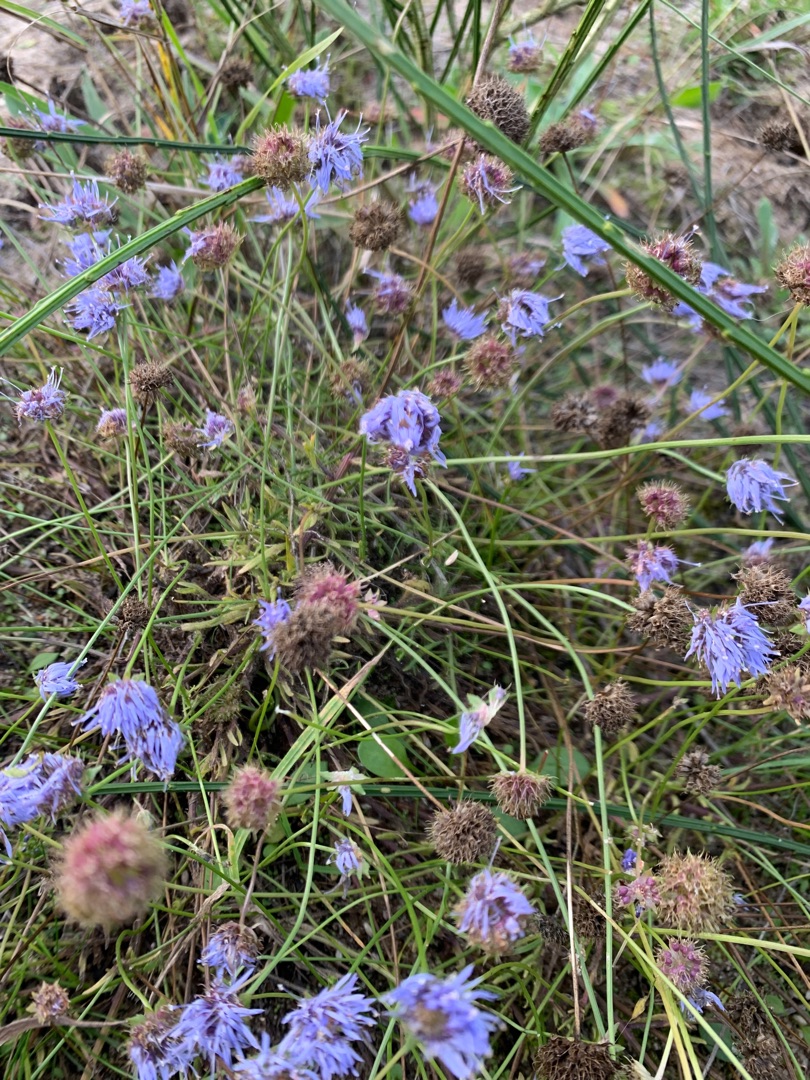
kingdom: Plantae
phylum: Tracheophyta
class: Magnoliopsida
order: Asterales
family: Campanulaceae
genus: Jasione
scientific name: Jasione montana
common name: Blåmunke
